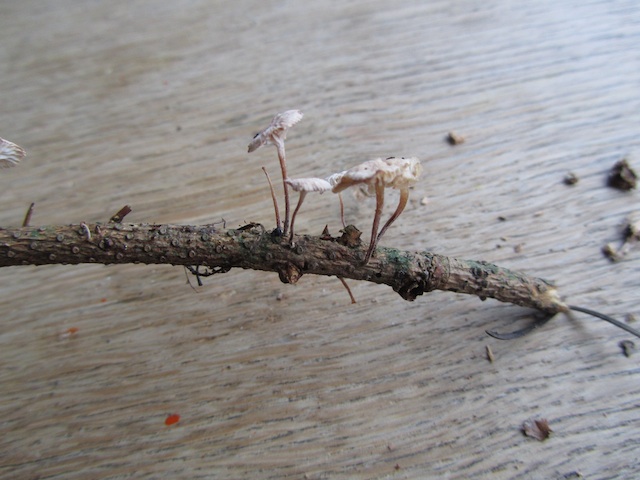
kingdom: Fungi
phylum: Basidiomycota
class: Agaricomycetes
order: Agaricales
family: Omphalotaceae
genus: Collybiopsis
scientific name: Collybiopsis ramealis
